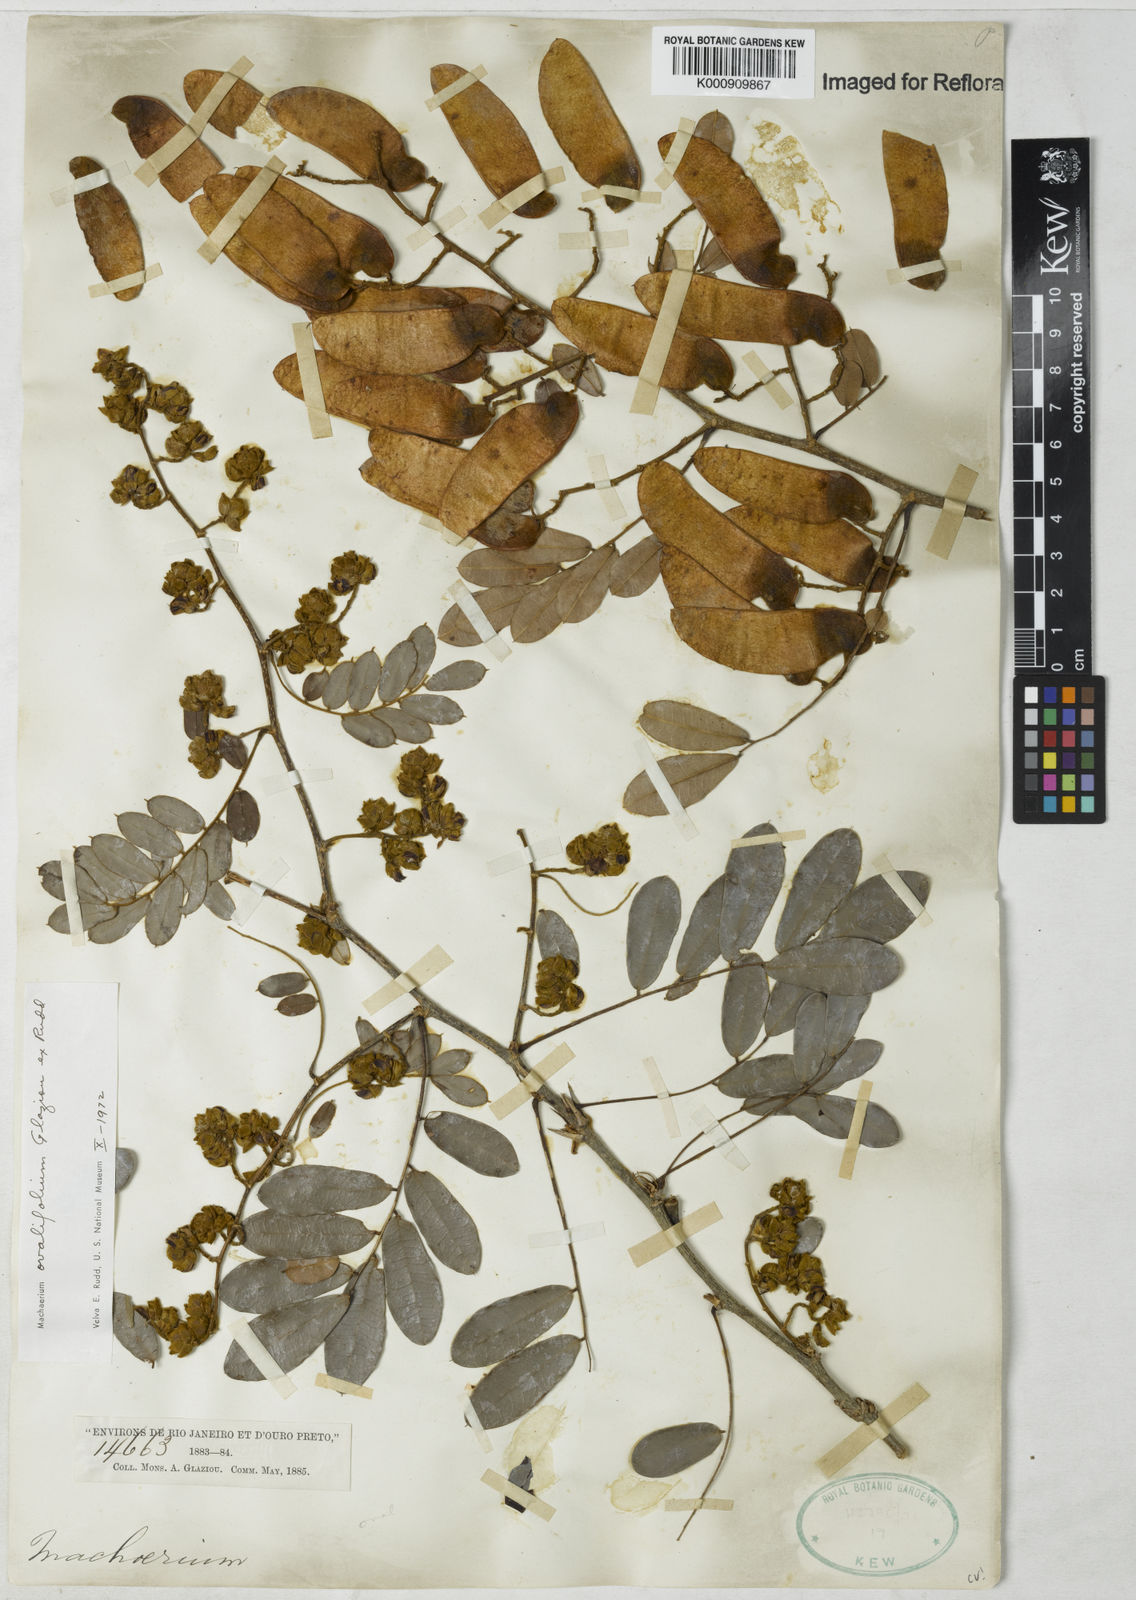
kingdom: Plantae
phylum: Tracheophyta
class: Magnoliopsida
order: Fabales
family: Fabaceae
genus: Machaerium
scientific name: Machaerium ovalifolium
